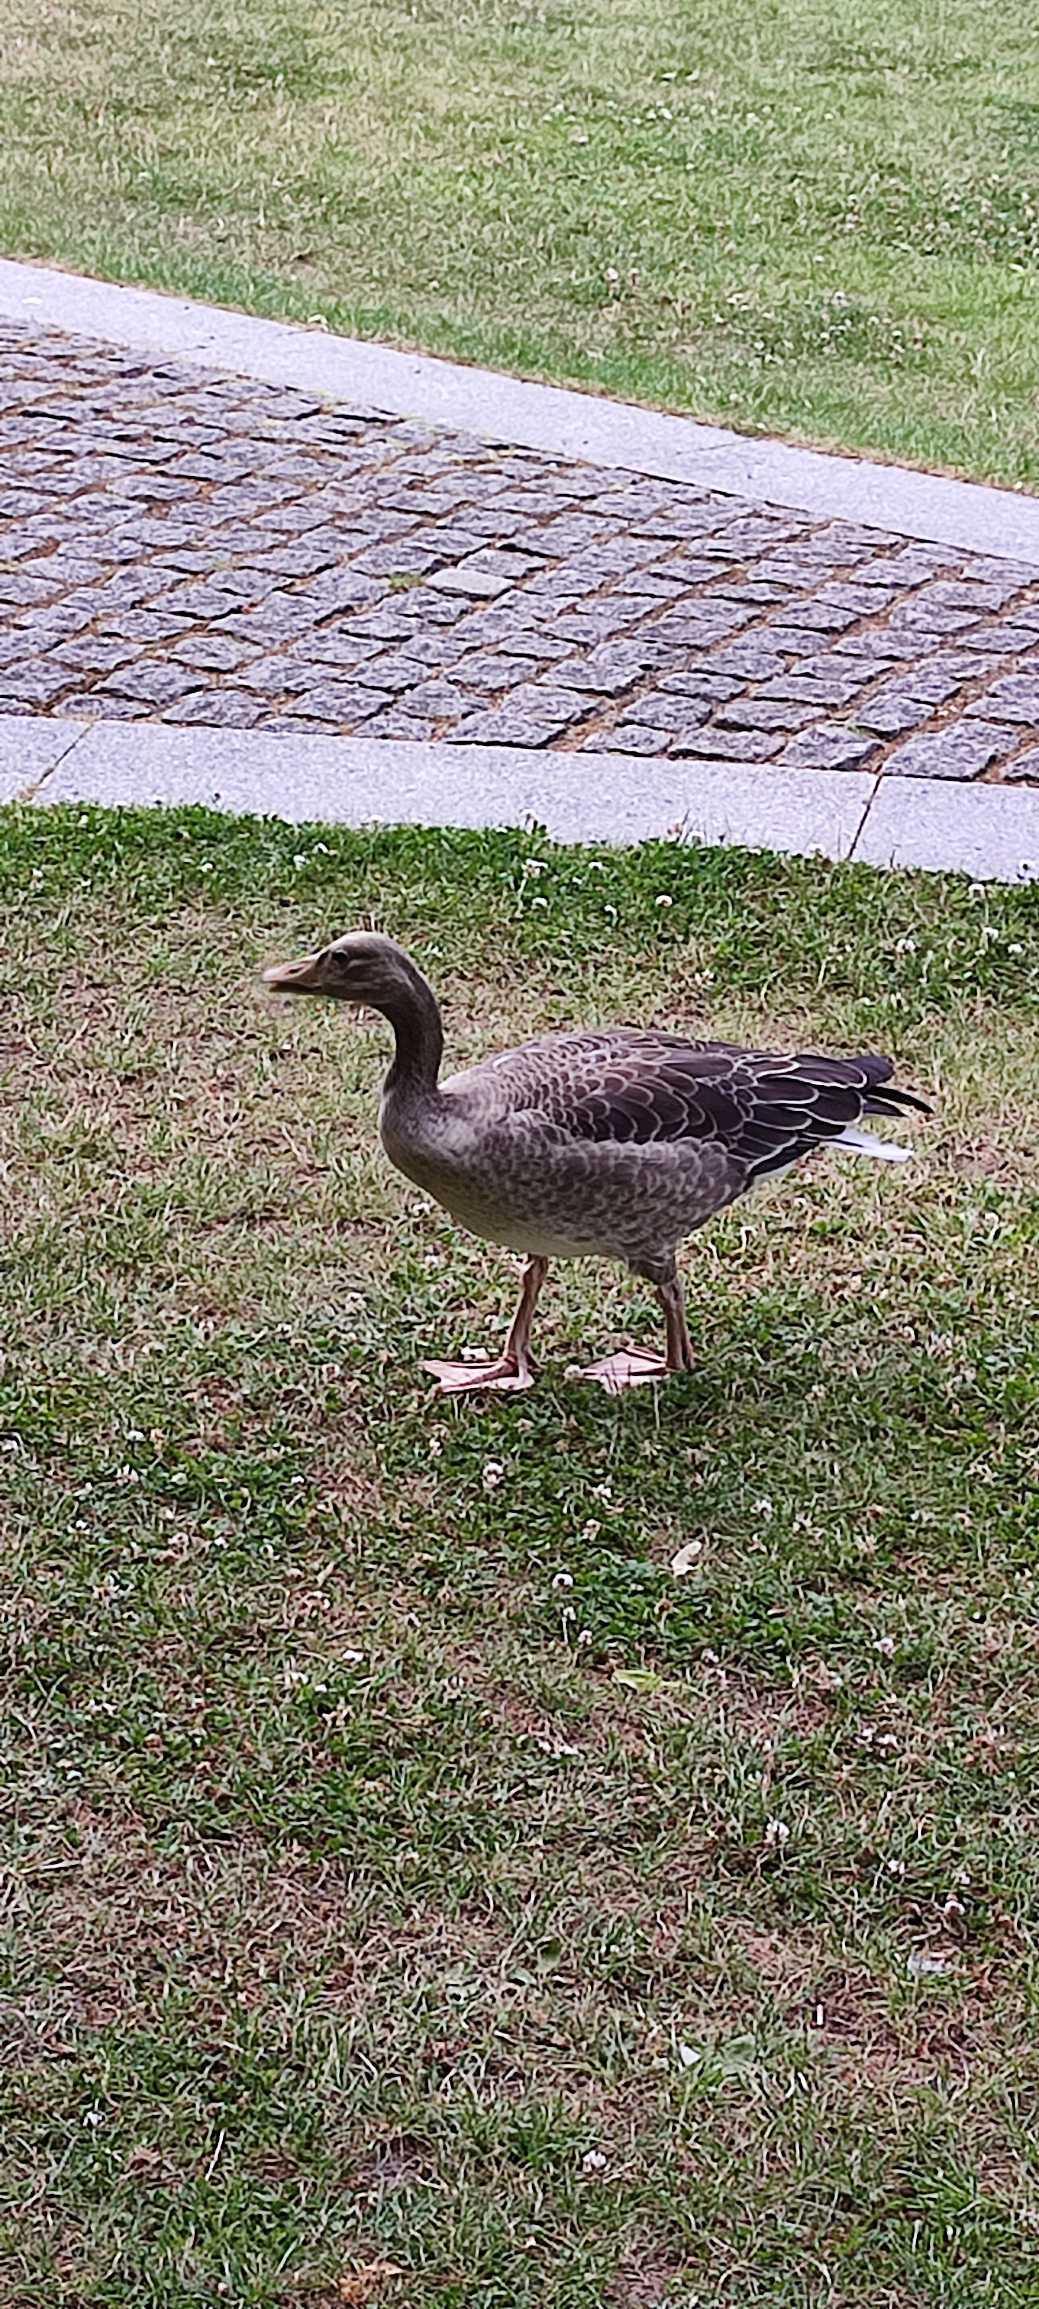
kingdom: Animalia
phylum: Chordata
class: Aves
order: Anseriformes
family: Anatidae
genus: Anser
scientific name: Anser anser
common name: Grågås
